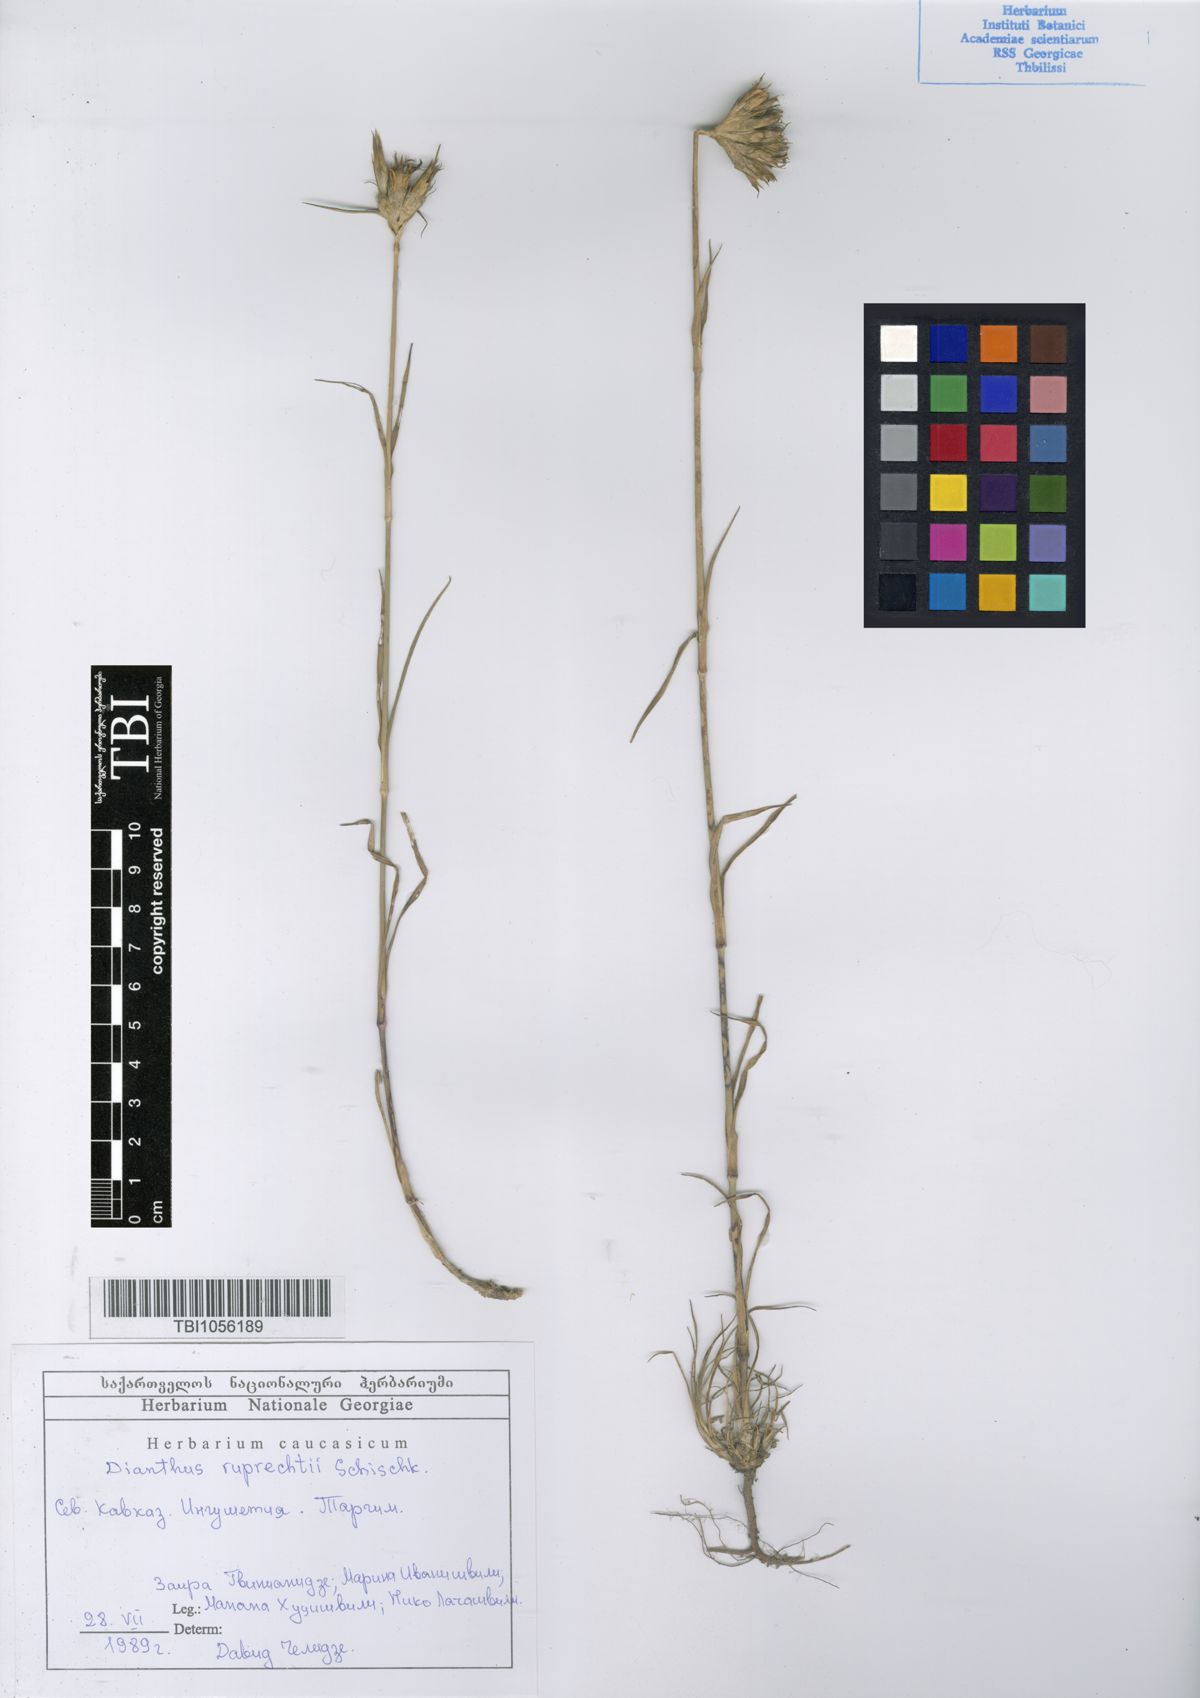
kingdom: Plantae
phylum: Tracheophyta
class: Magnoliopsida
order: Caryophyllales
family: Caryophyllaceae
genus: Dianthus
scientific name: Dianthus ruprechtii
